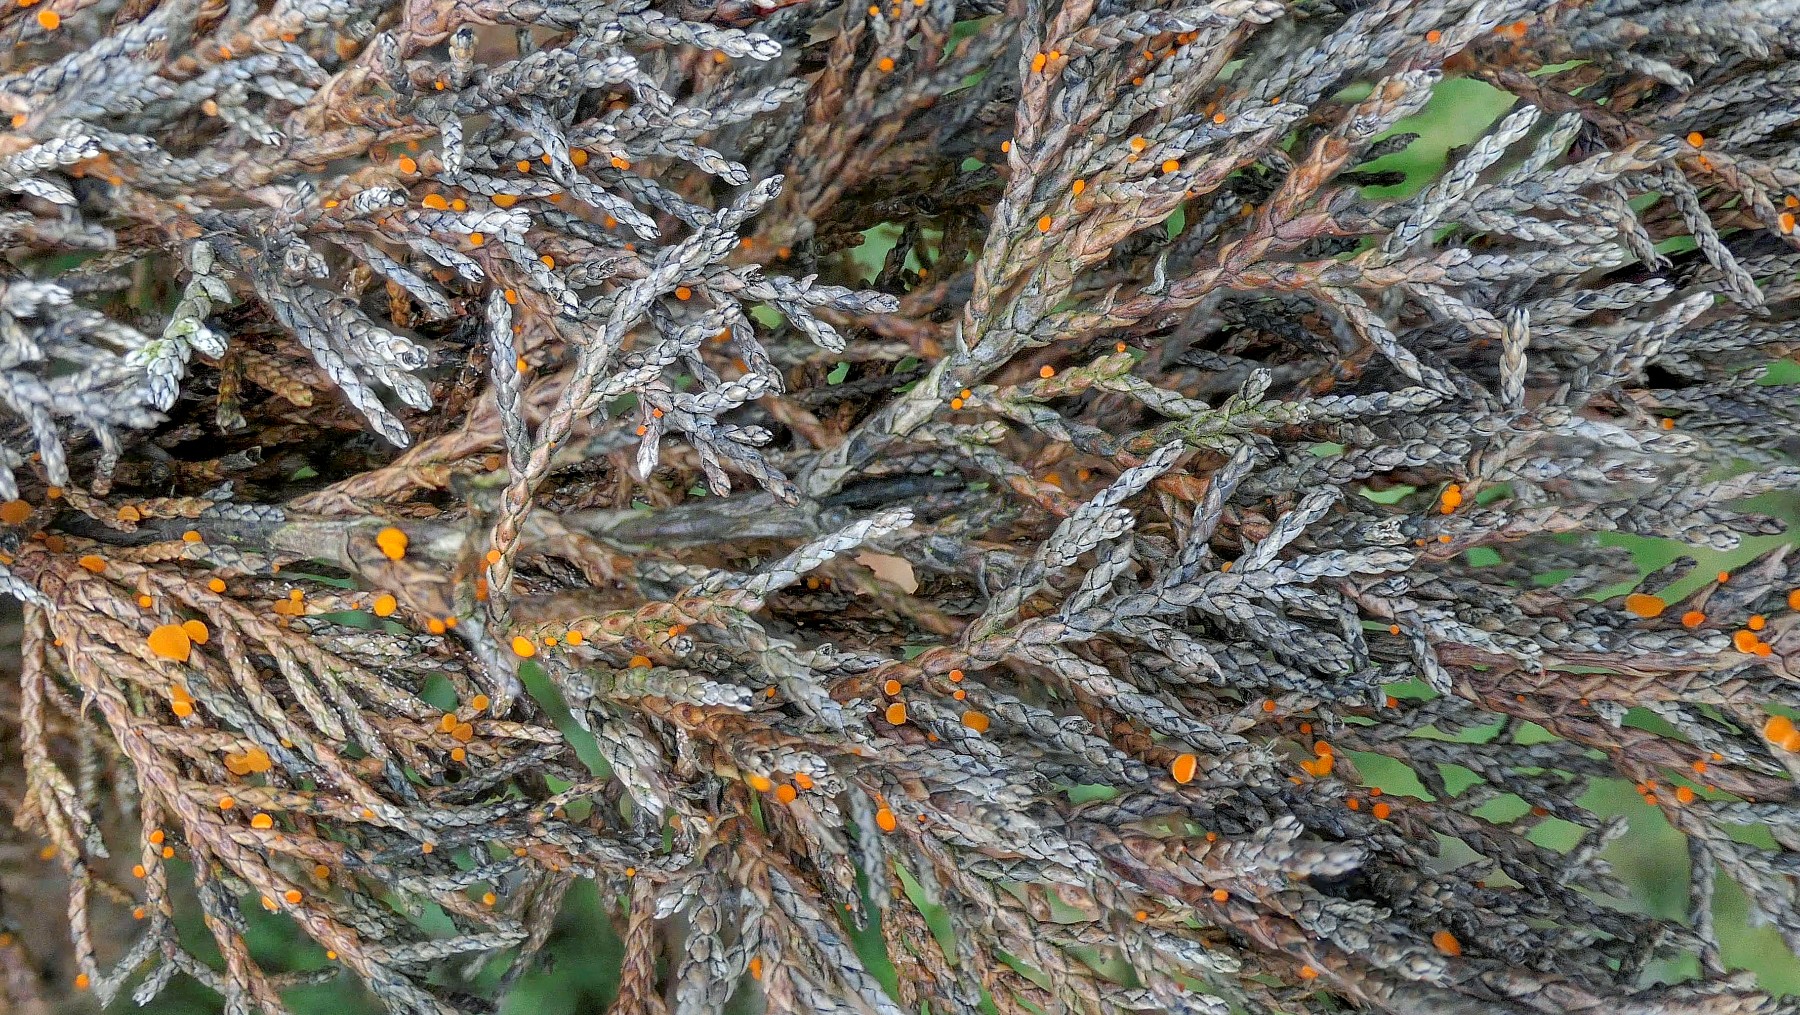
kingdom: Fungi
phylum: Ascomycota
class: Pezizomycetes
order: Pezizales
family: Sarcoscyphaceae
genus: Pithya
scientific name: Pithya cupressina
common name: lille dukatbæger
